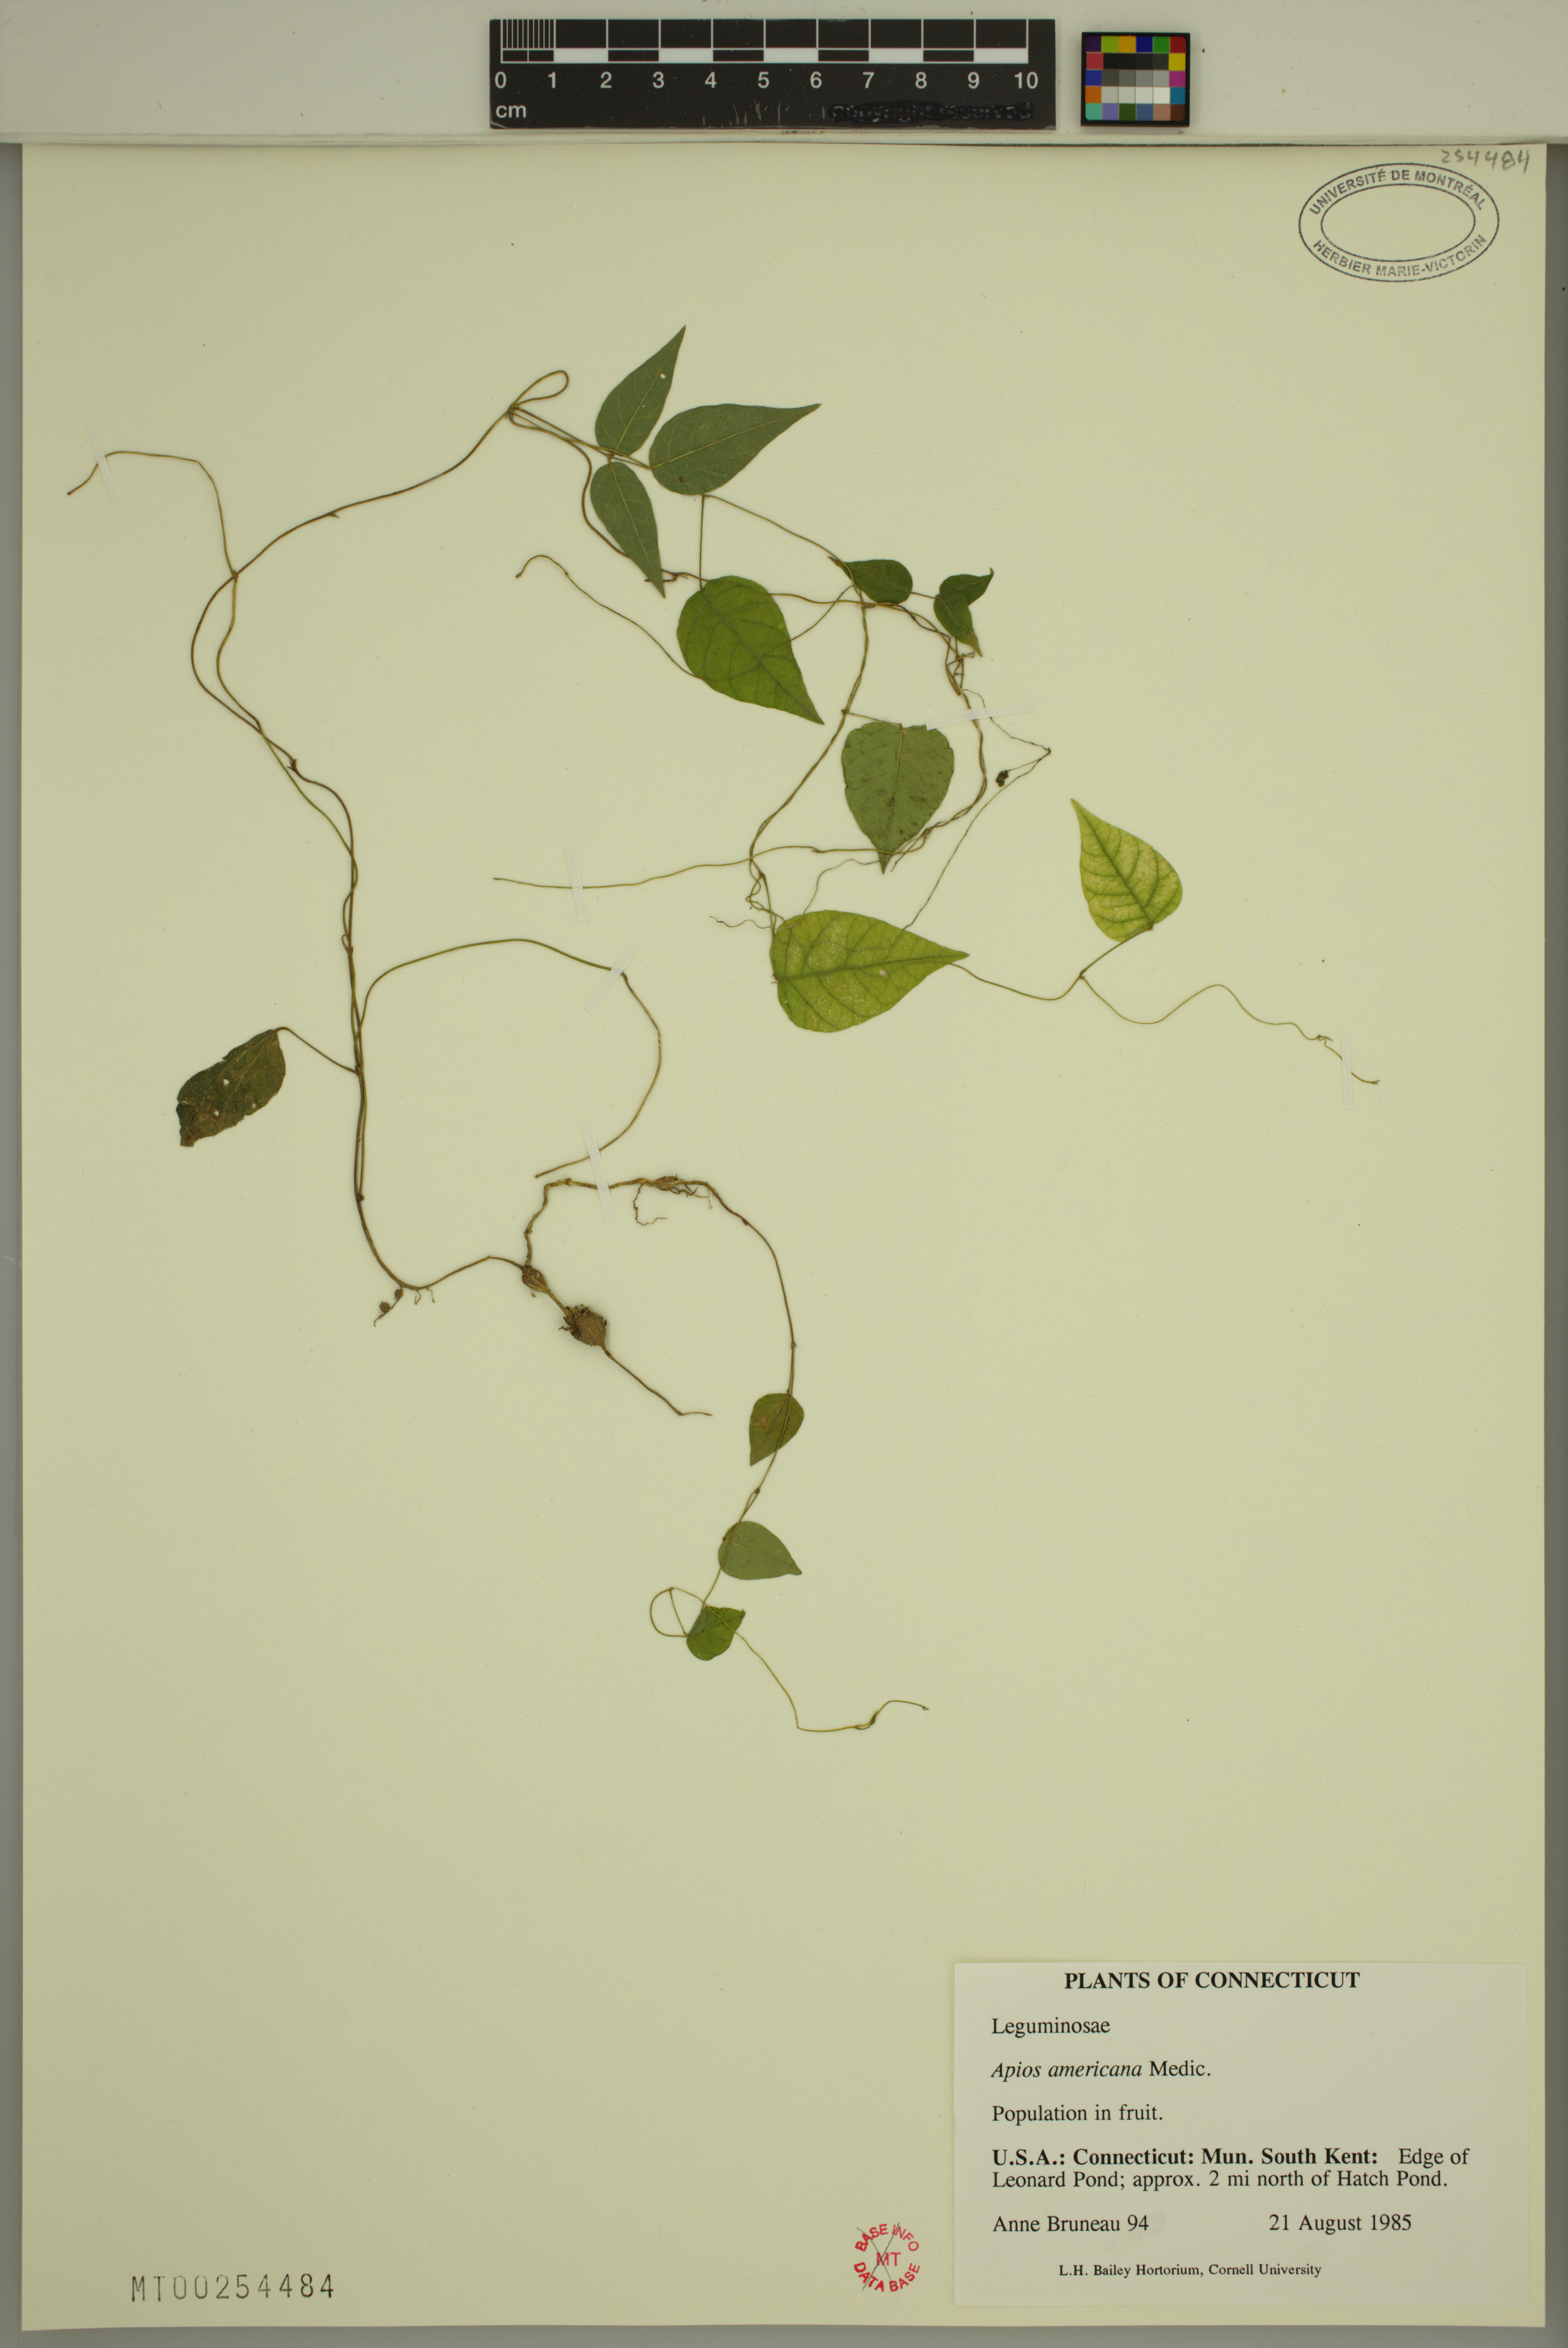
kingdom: Plantae
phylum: Tracheophyta
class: Magnoliopsida
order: Fabales
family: Fabaceae
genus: Apios
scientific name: Apios americana
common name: American potato-bean
